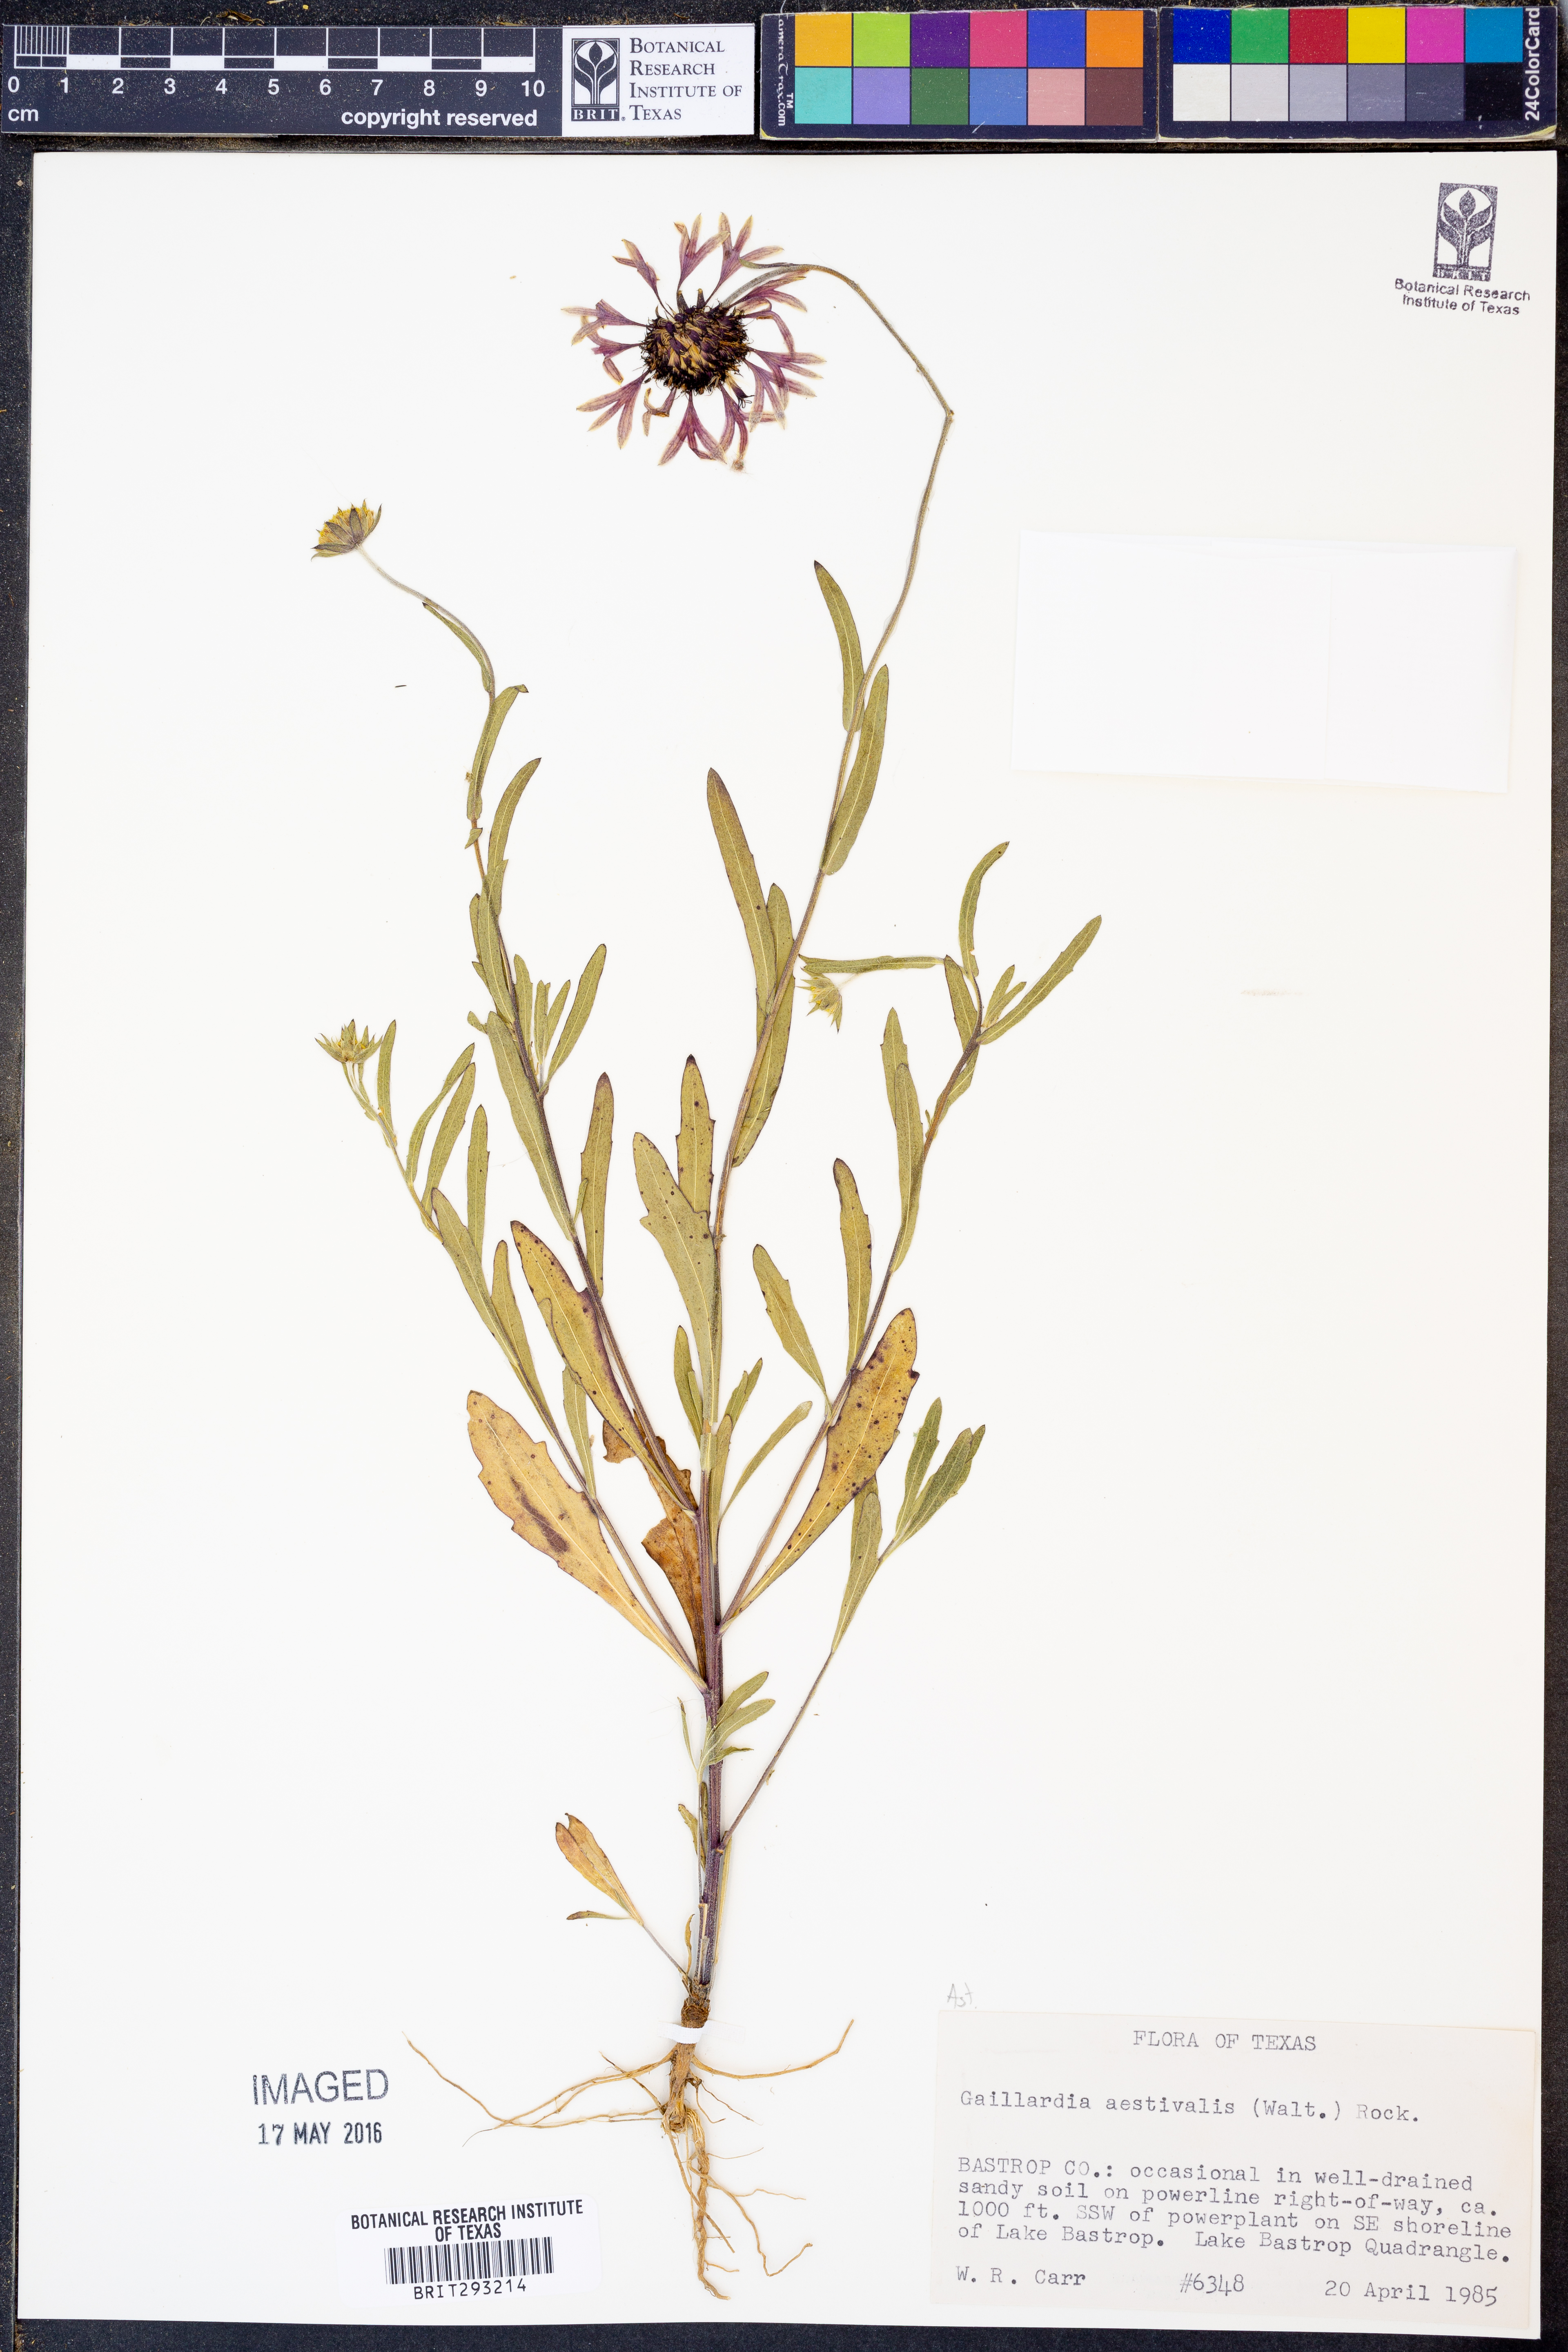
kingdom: Plantae
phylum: Tracheophyta
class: Magnoliopsida
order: Asterales
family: Asteraceae
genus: Gaillardia
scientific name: Gaillardia aestivalis
